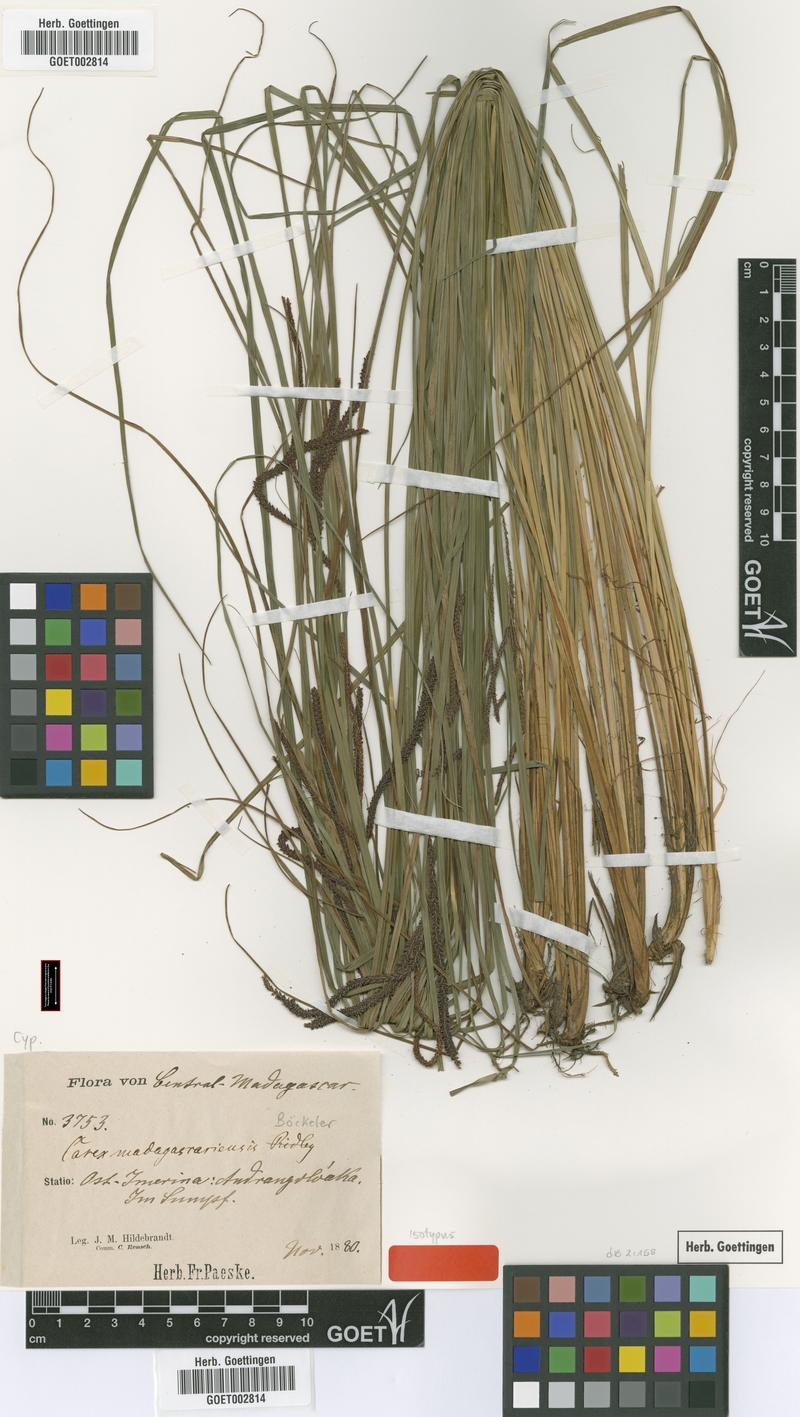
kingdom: Plantae
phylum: Tracheophyta
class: Liliopsida
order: Poales
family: Cyperaceae
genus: Carex
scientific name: Carex madagascariensis
